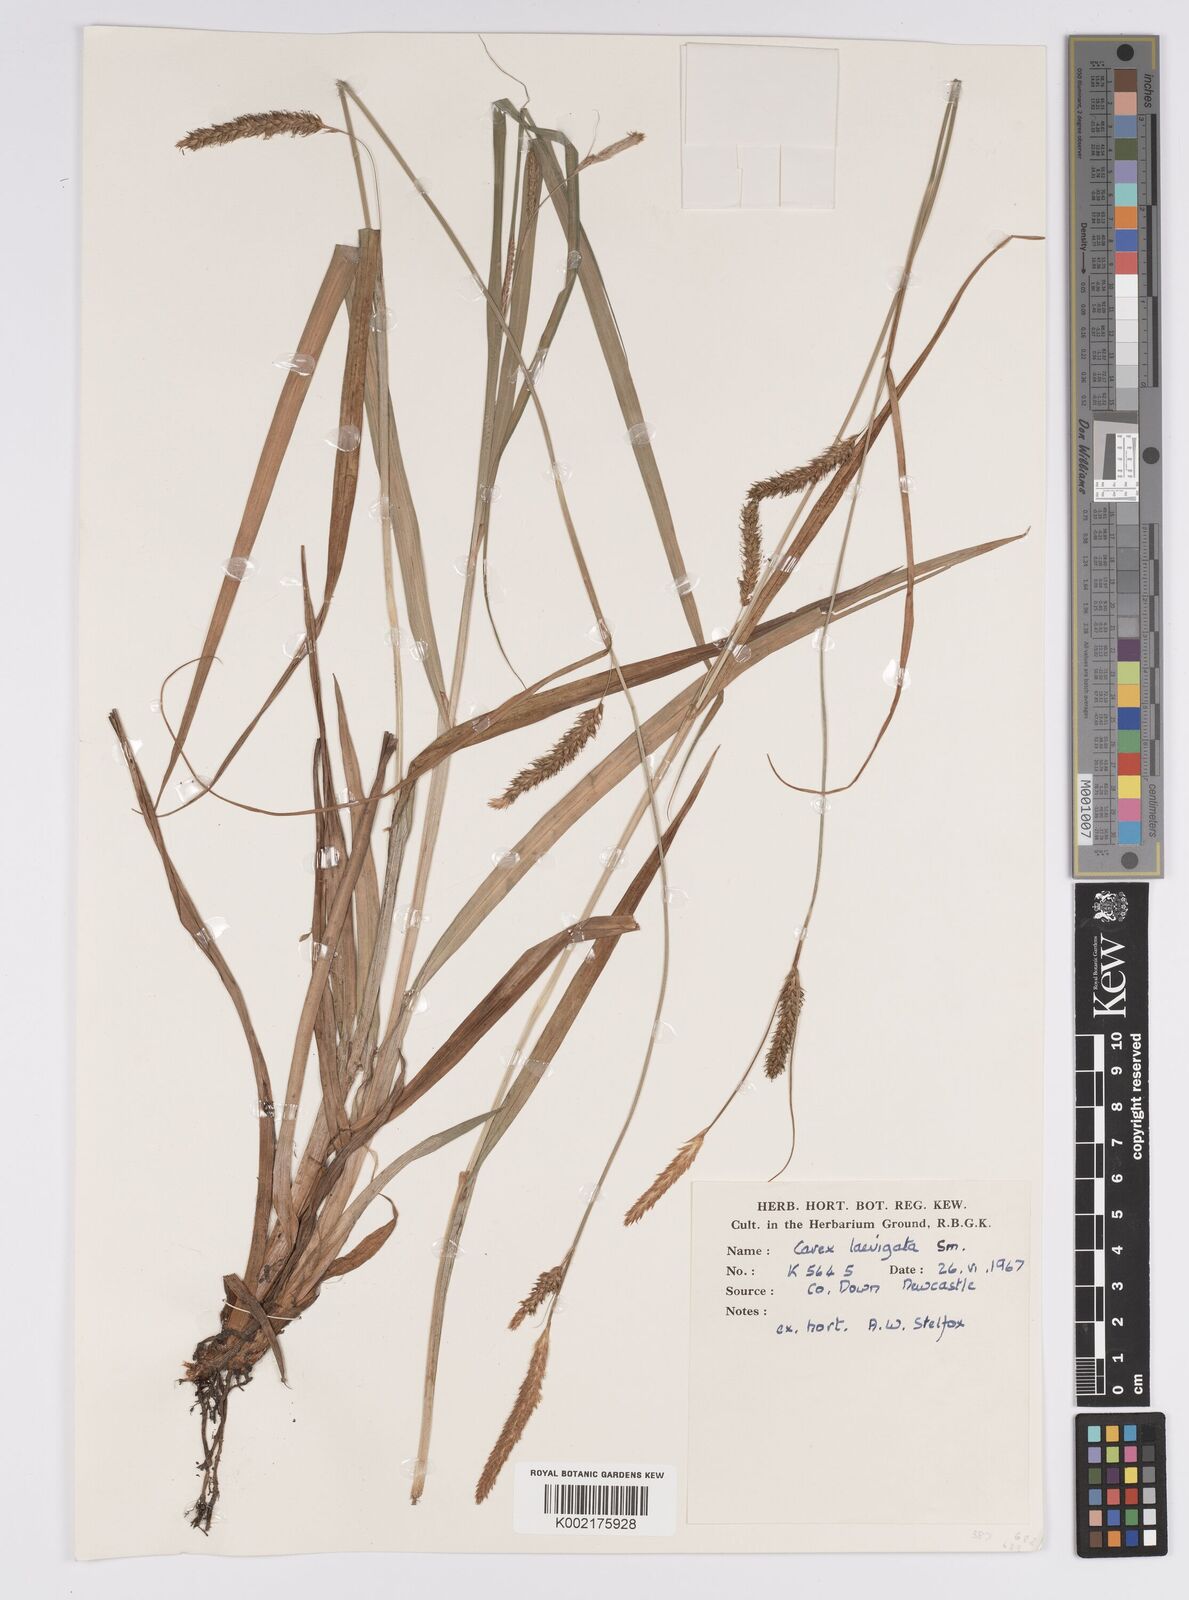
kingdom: Plantae
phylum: Tracheophyta
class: Liliopsida
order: Poales
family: Cyperaceae
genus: Carex
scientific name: Carex laevigata
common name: Smooth-stalked sedge
